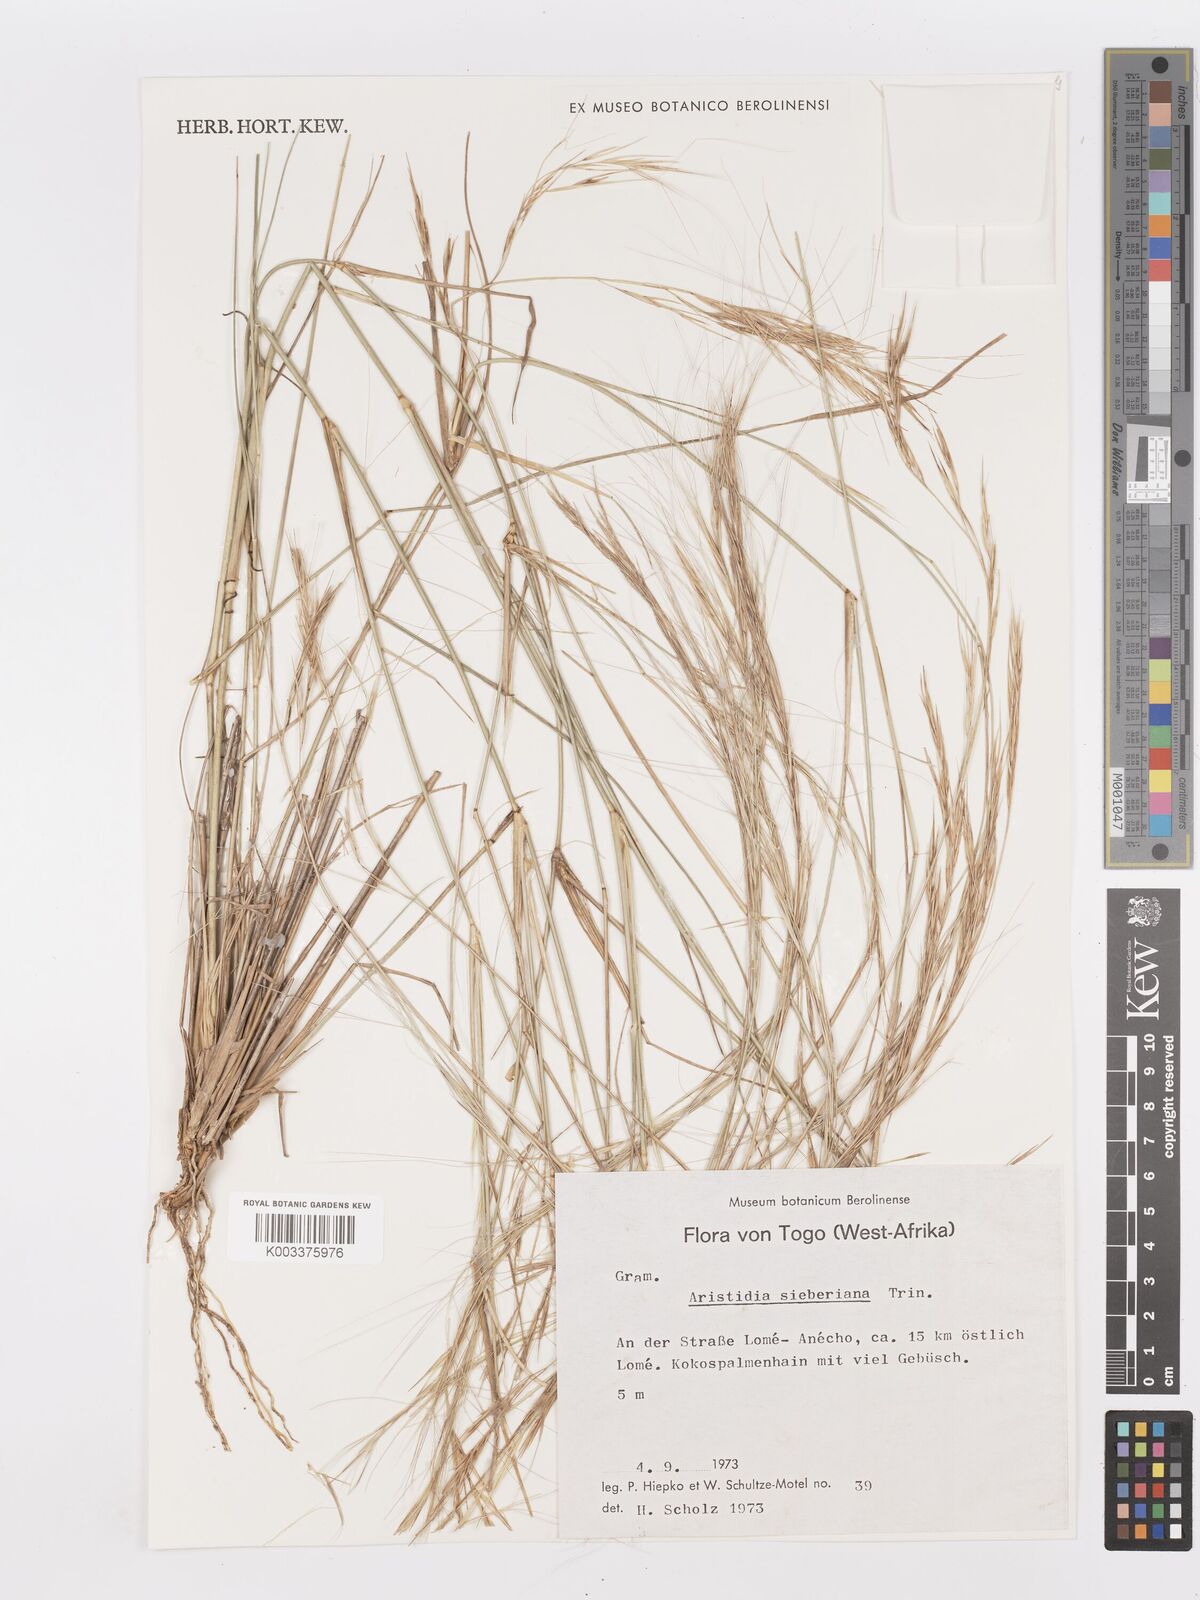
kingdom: Plantae
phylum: Tracheophyta
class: Liliopsida
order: Poales
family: Poaceae
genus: Aristida
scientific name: Aristida sieberiana
